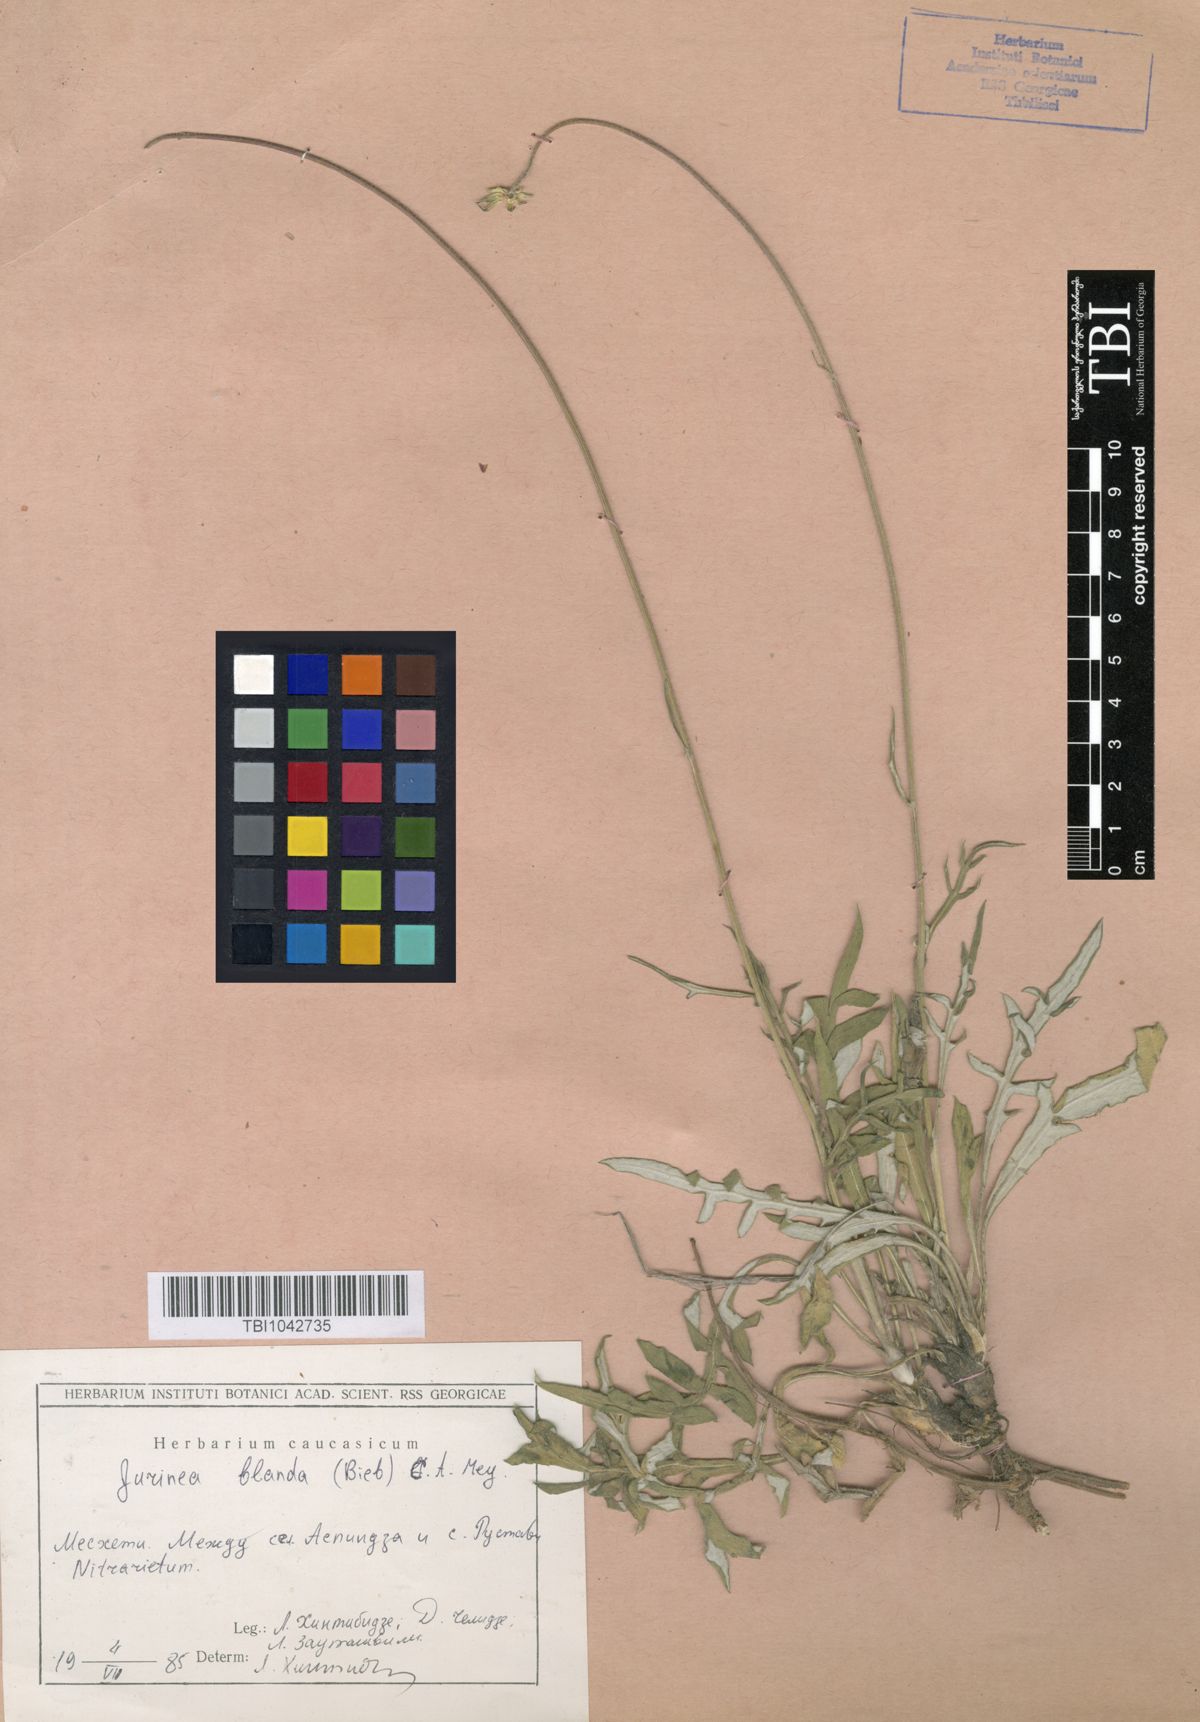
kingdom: Plantae
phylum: Tracheophyta
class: Magnoliopsida
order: Asterales
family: Asteraceae
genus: Jurinea
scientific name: Jurinea blanda
